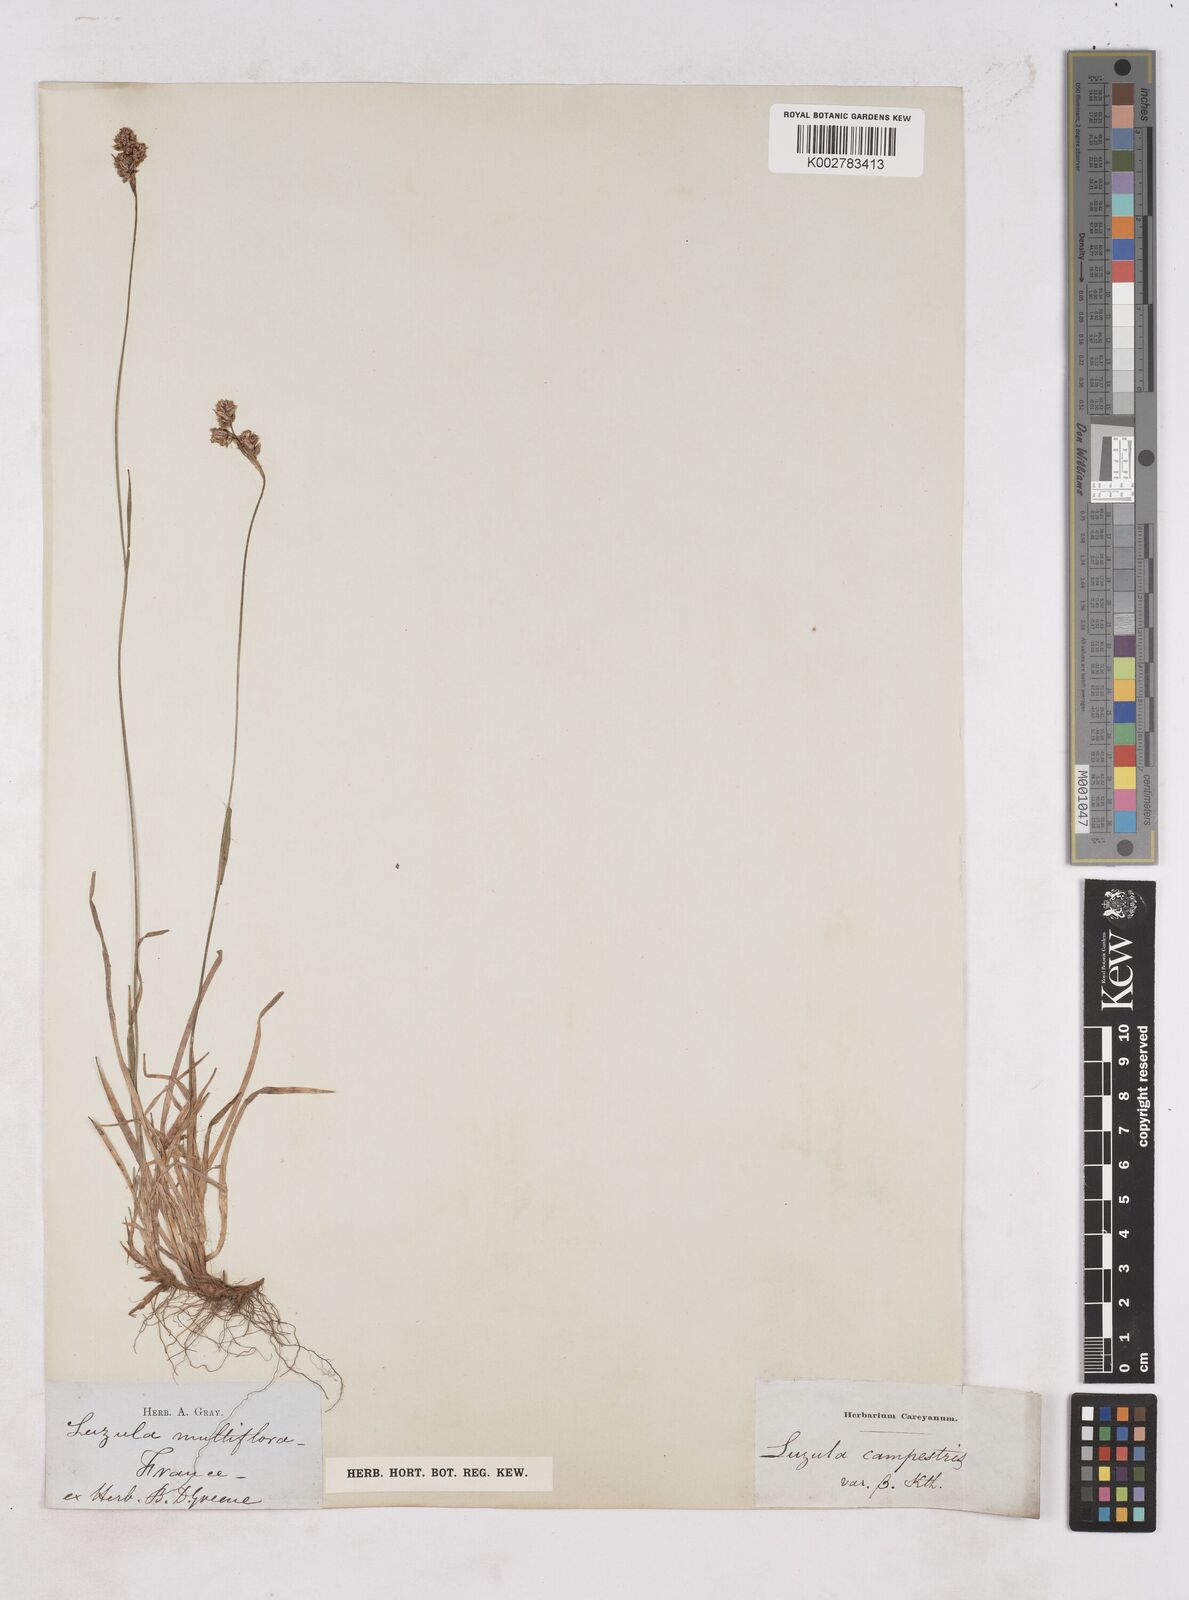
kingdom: Plantae
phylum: Tracheophyta
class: Liliopsida
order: Poales
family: Juncaceae
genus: Luzula
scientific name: Luzula multiflora
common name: Heath wood-rush
